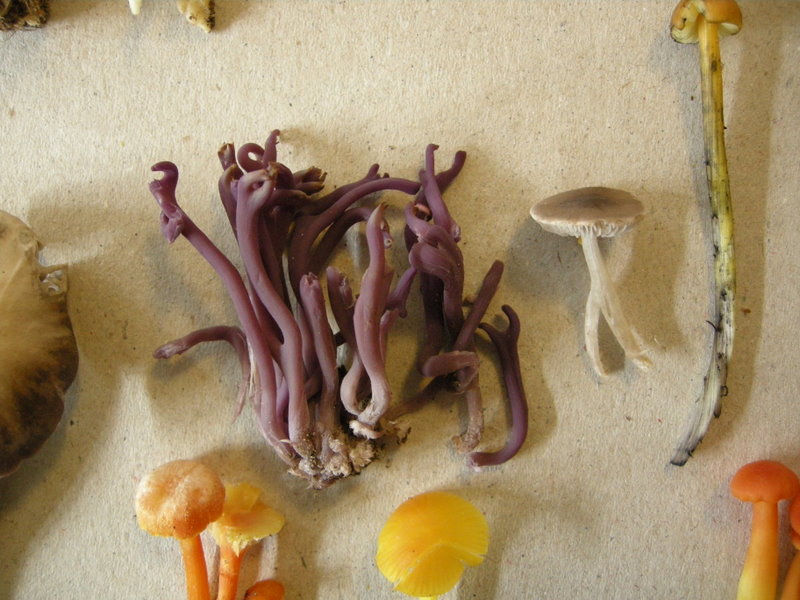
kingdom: Fungi
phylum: Basidiomycota
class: Agaricomycetes
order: Agaricales
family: Clavariaceae
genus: Clavaria
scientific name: Clavaria zollingeri
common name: purpur-køllesvamp
